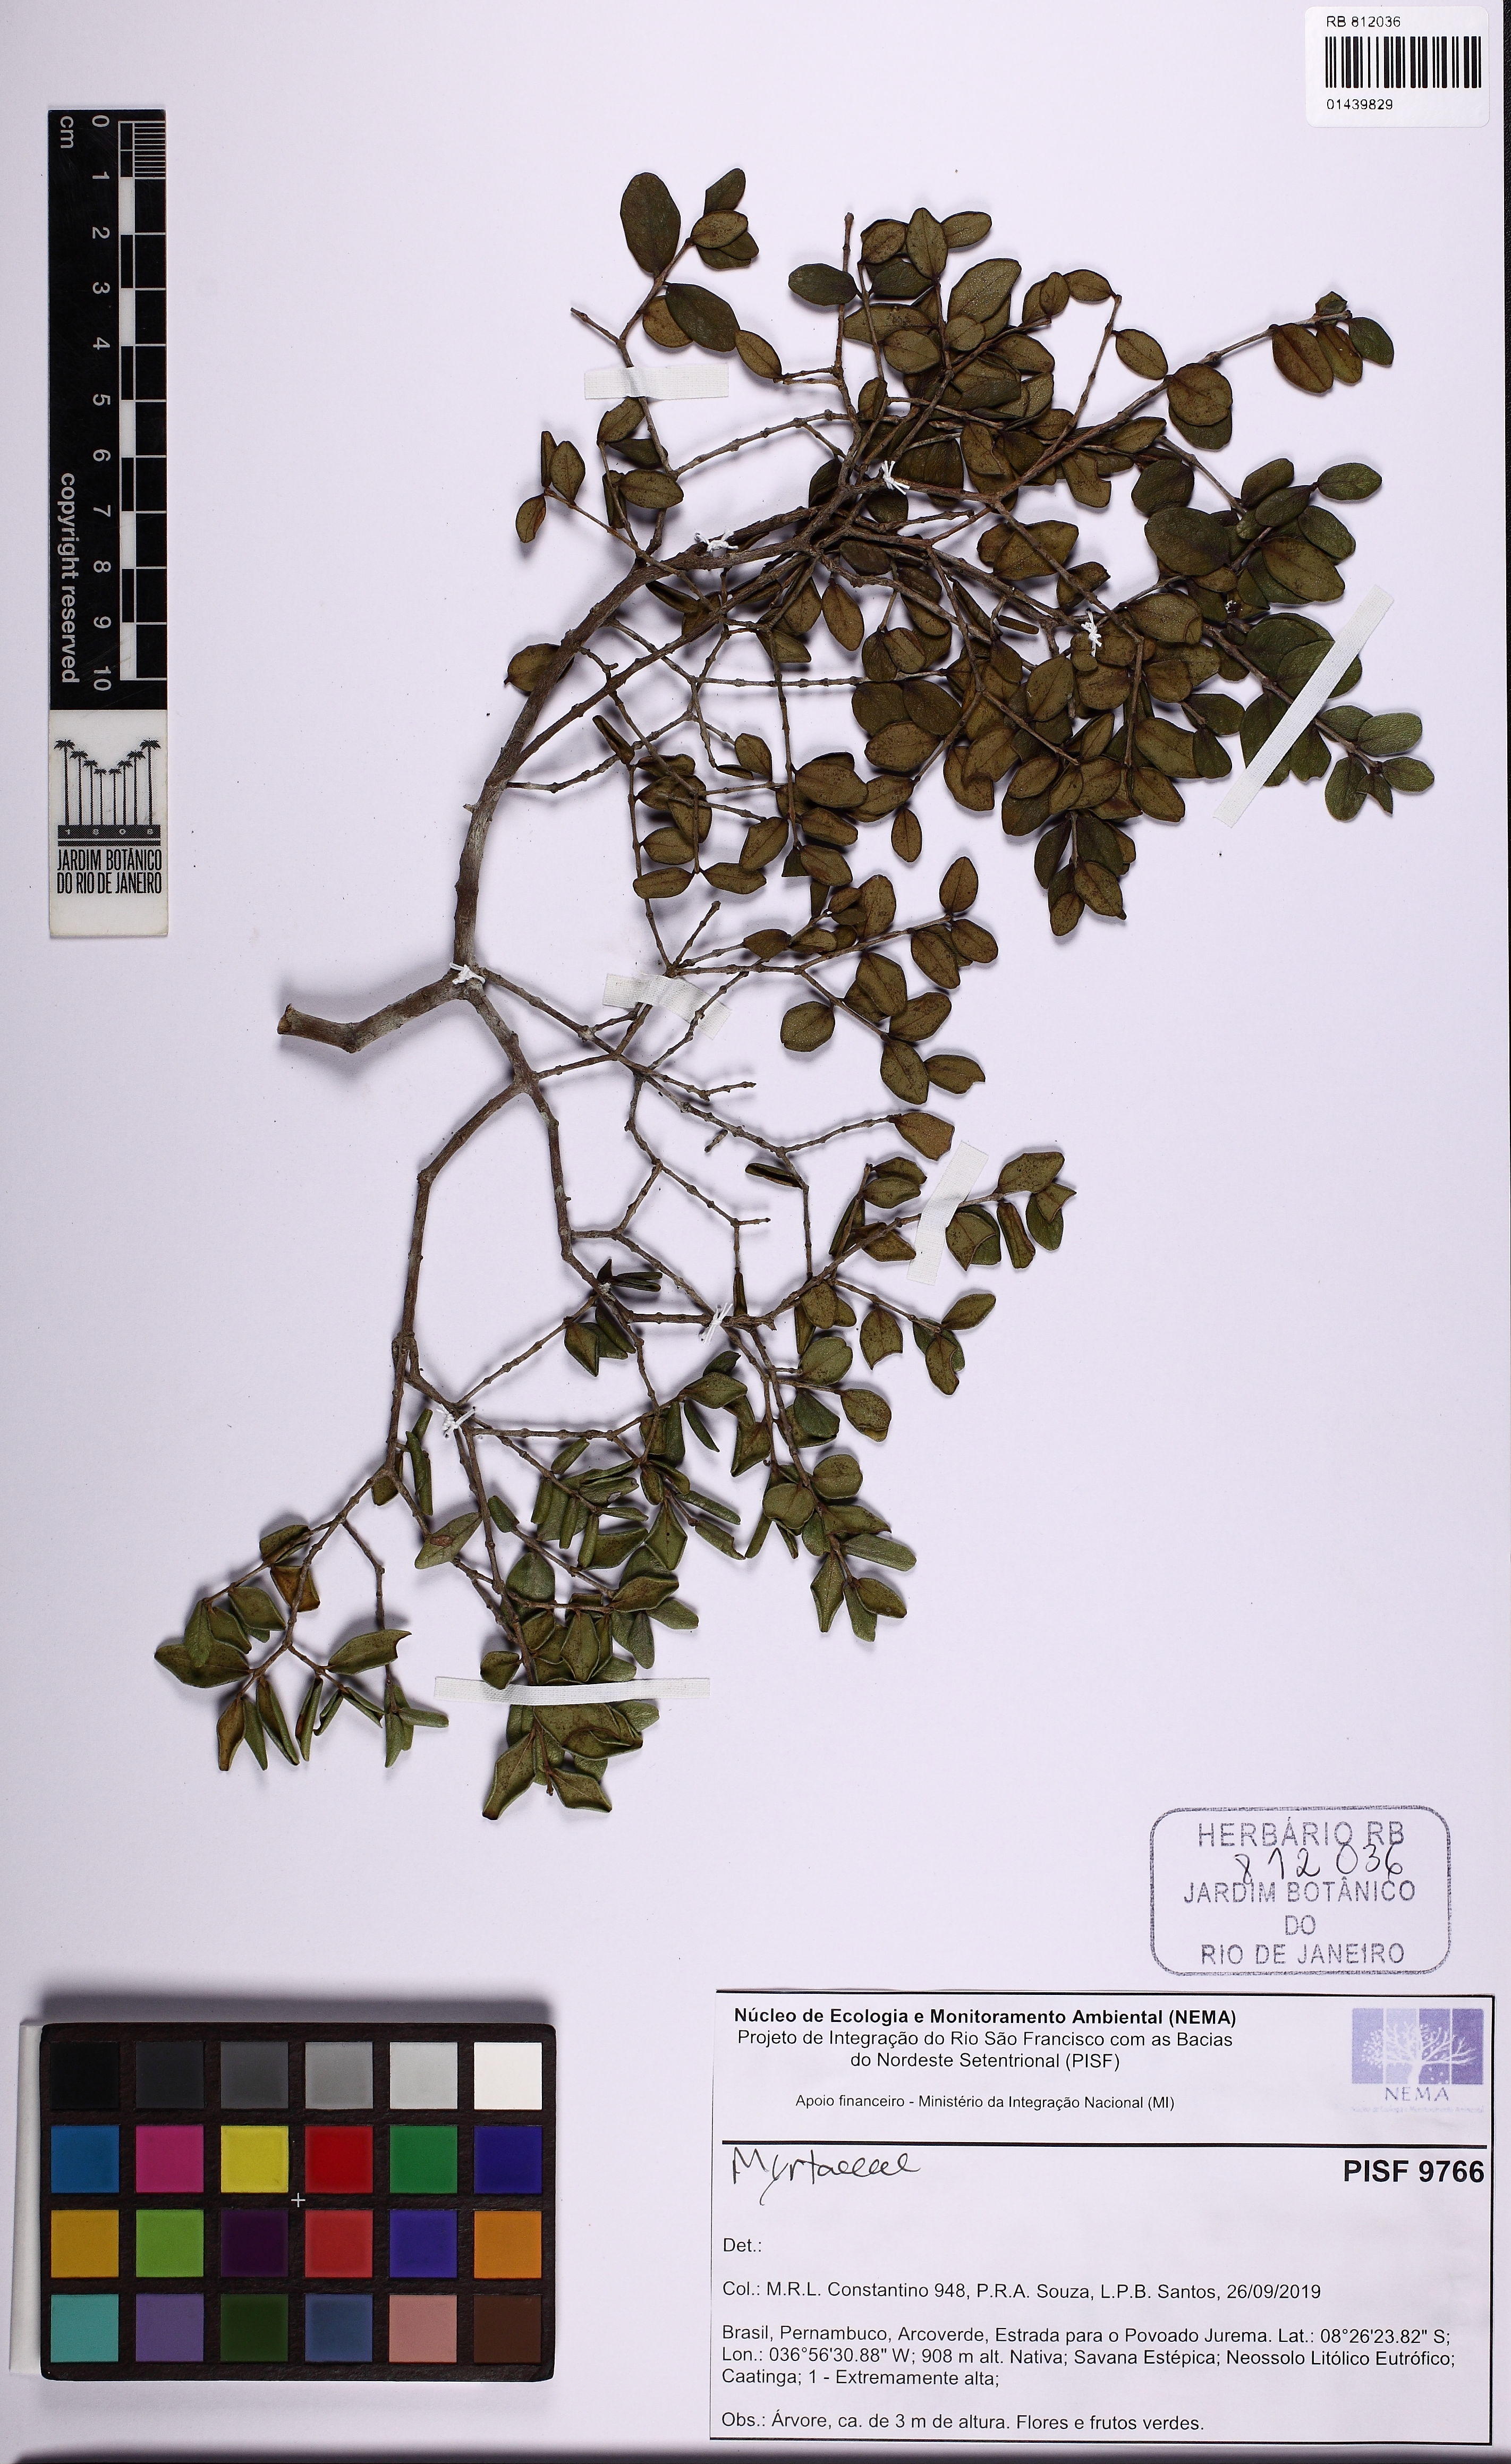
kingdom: Plantae
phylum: Tracheophyta
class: Magnoliopsida
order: Myrtales
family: Myrtaceae
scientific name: Myrtaceae
